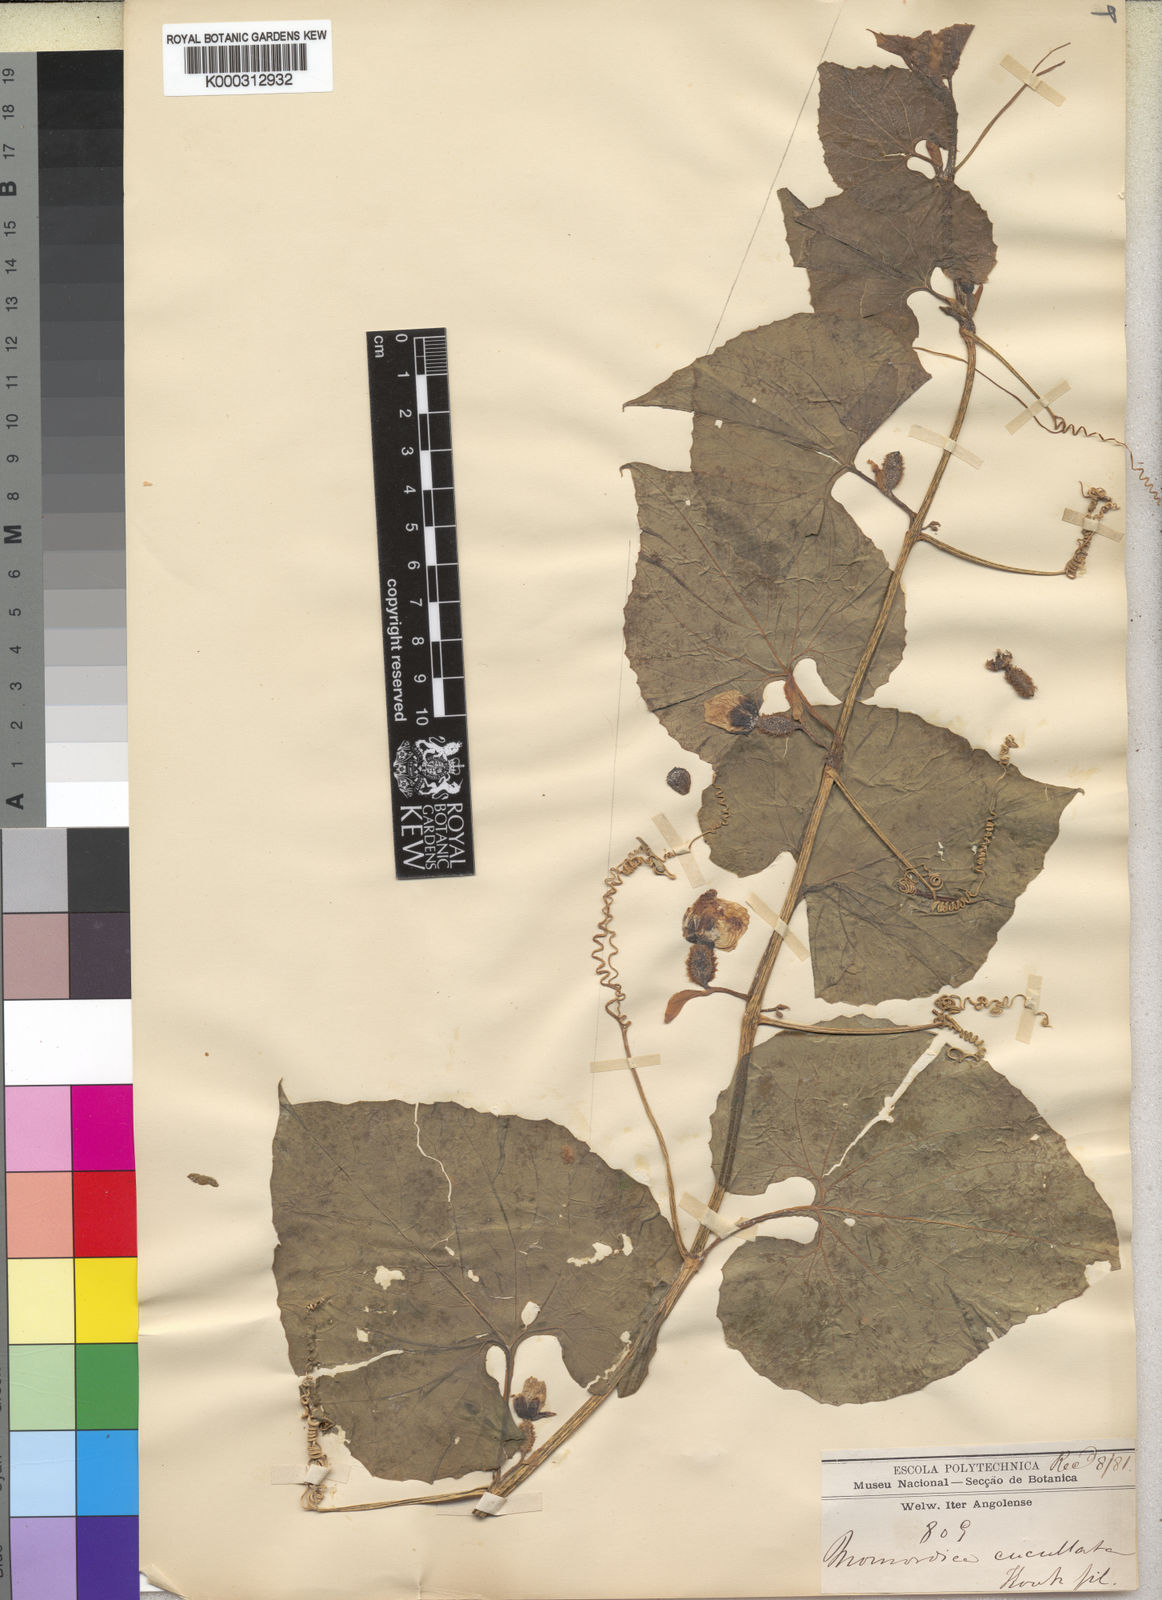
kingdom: Plantae
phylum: Tracheophyta
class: Magnoliopsida
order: Cucurbitales
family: Cucurbitaceae
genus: Momordica
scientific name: Momordica foetida
